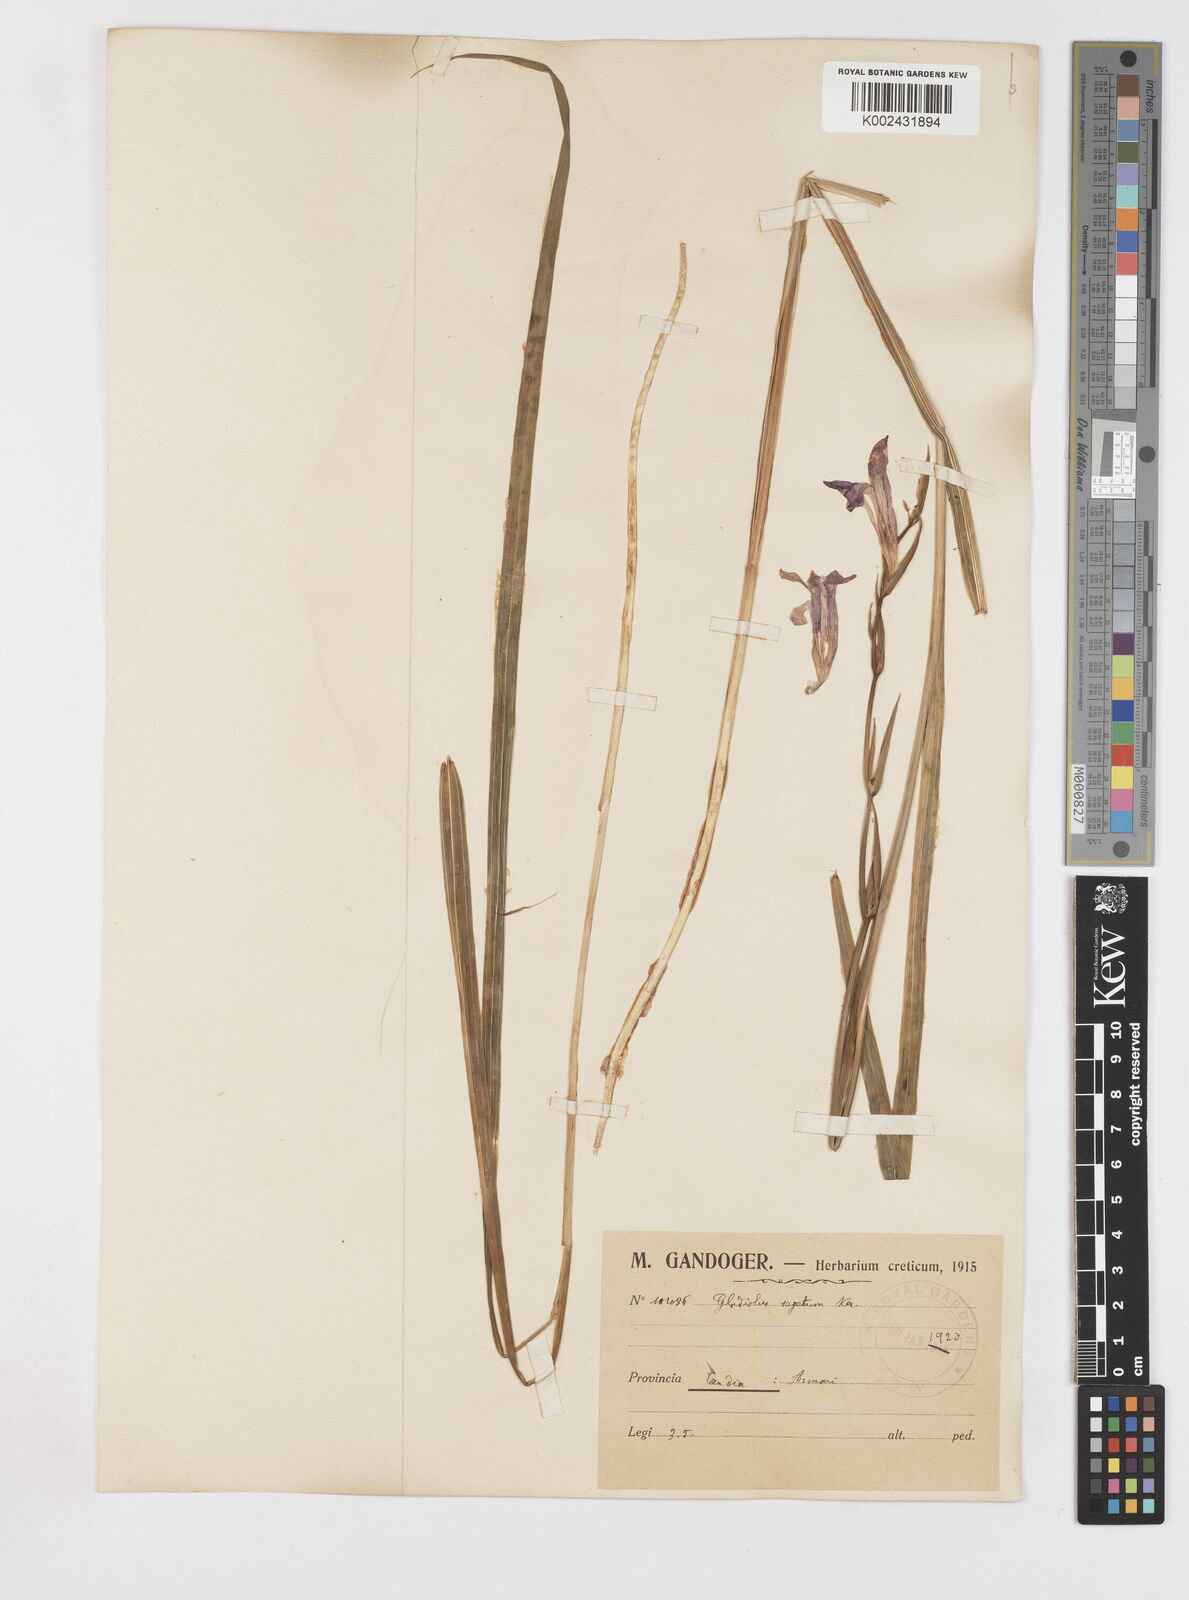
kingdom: Plantae
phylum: Tracheophyta
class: Liliopsida
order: Asparagales
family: Iridaceae
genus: Gladiolus
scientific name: Gladiolus italicus
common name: Field gladiolus
